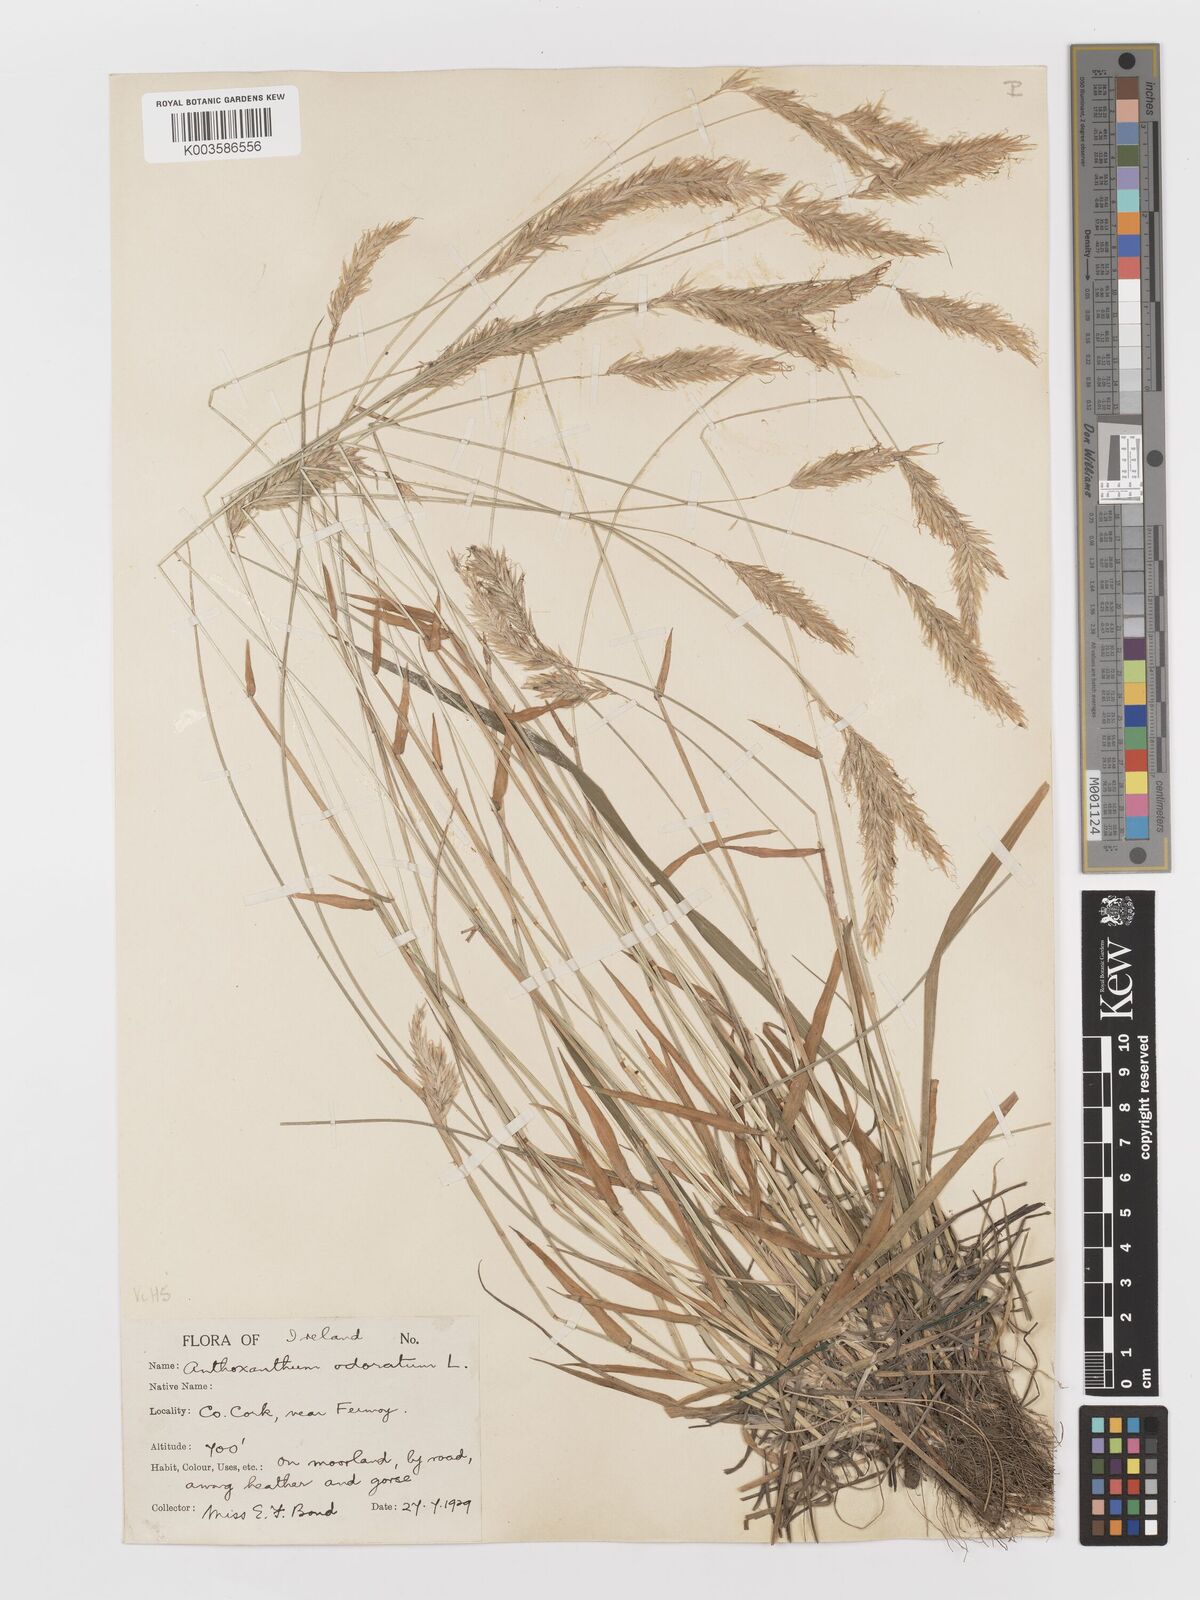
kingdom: Plantae
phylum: Tracheophyta
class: Liliopsida
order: Poales
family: Poaceae
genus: Anthoxanthum
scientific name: Anthoxanthum odoratum
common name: Sweet vernalgrass
